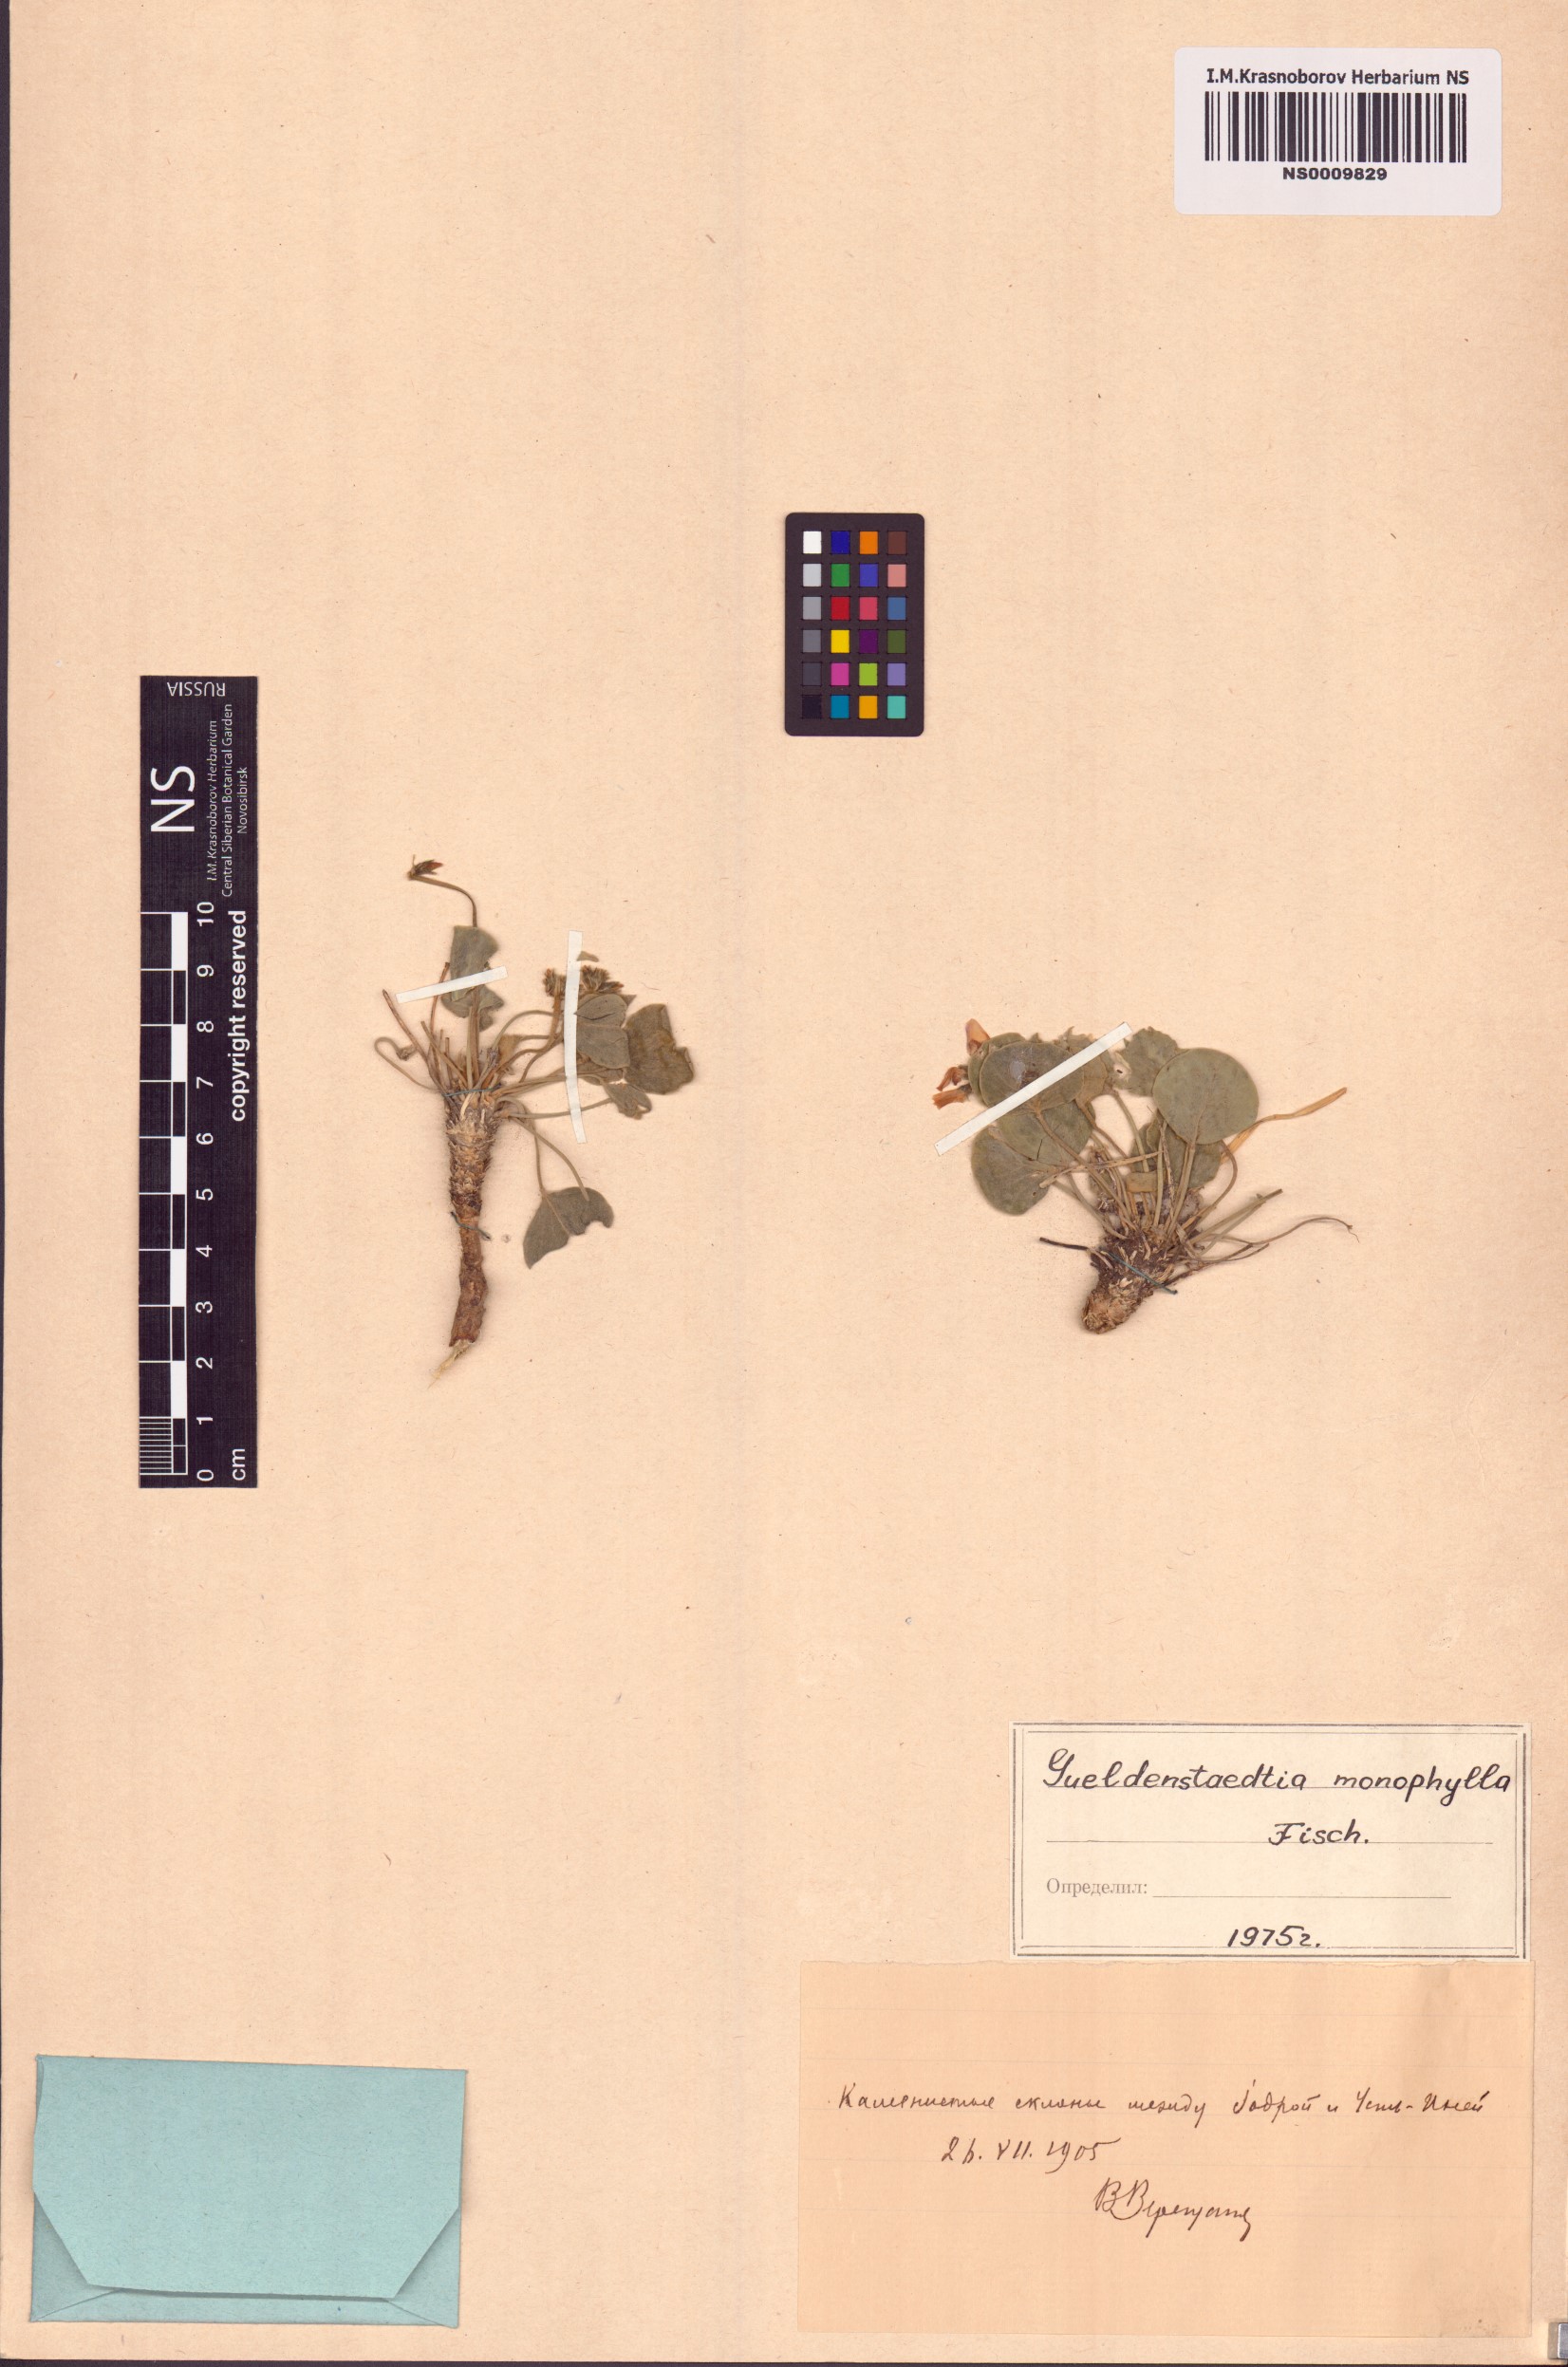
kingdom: Plantae
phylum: Tracheophyta
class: Magnoliopsida
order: Fabales
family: Fabaceae
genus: Gueldenstaedtia
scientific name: Gueldenstaedtia monophylla
